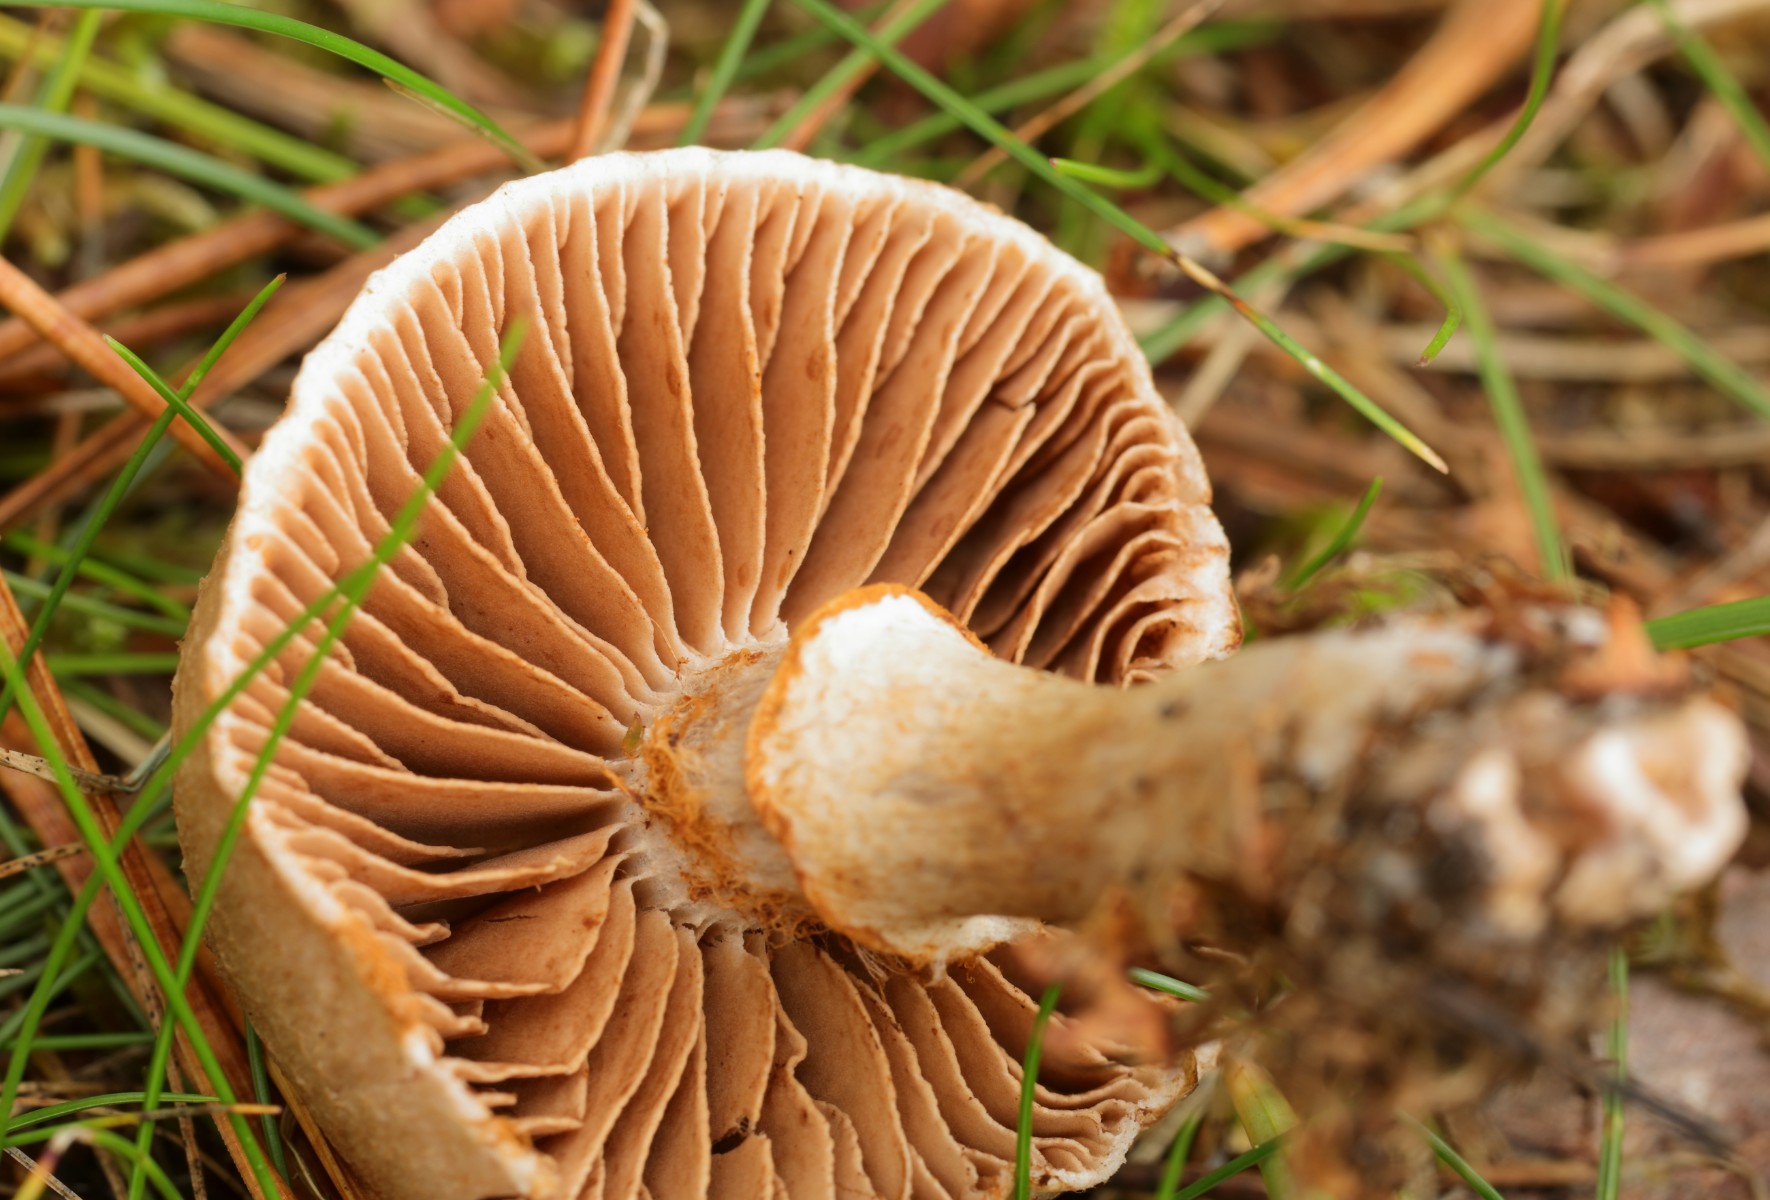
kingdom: Fungi
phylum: Basidiomycota
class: Agaricomycetes
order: Agaricales
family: Cortinariaceae
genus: Cortinarius
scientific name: Cortinarius
